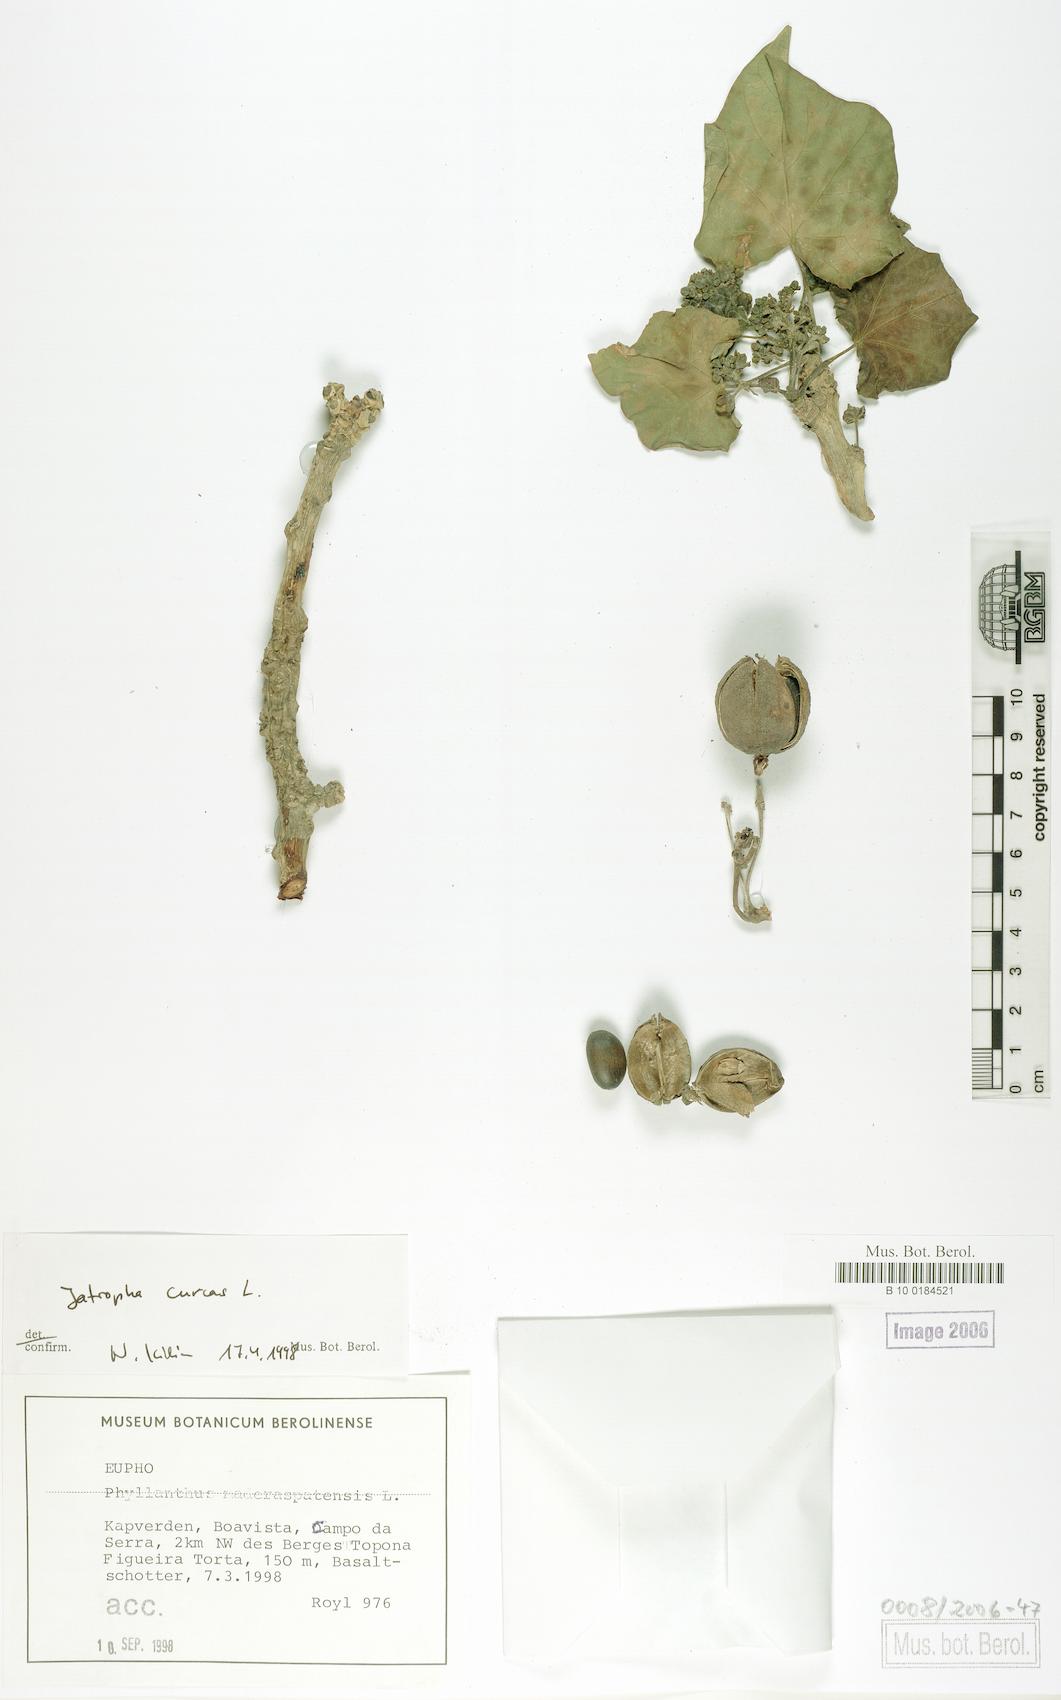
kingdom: Plantae
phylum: Tracheophyta
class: Magnoliopsida
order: Malpighiales
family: Euphorbiaceae
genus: Jatropha
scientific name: Jatropha curcas
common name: Barbados nut
